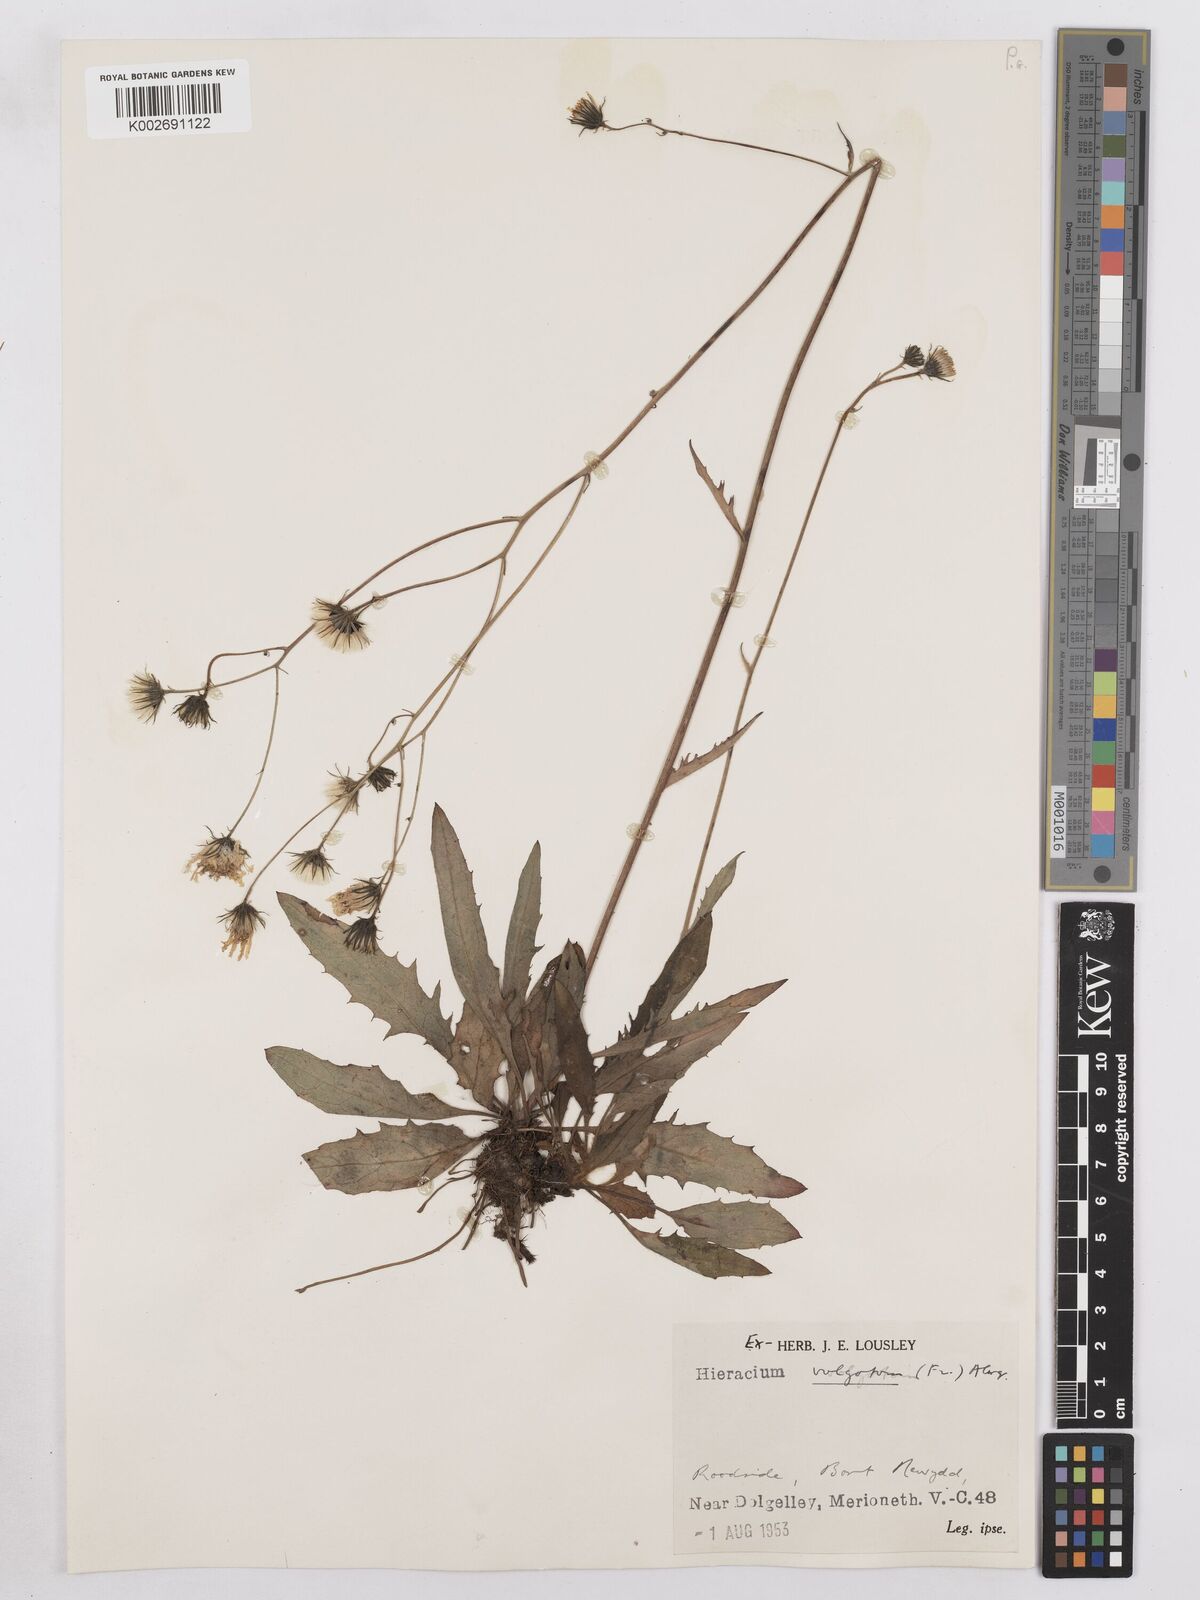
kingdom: Plantae
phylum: Tracheophyta
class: Magnoliopsida
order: Asterales
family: Asteraceae
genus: Hieracium
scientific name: Hieracium lachenalii
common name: Common hawkweed
